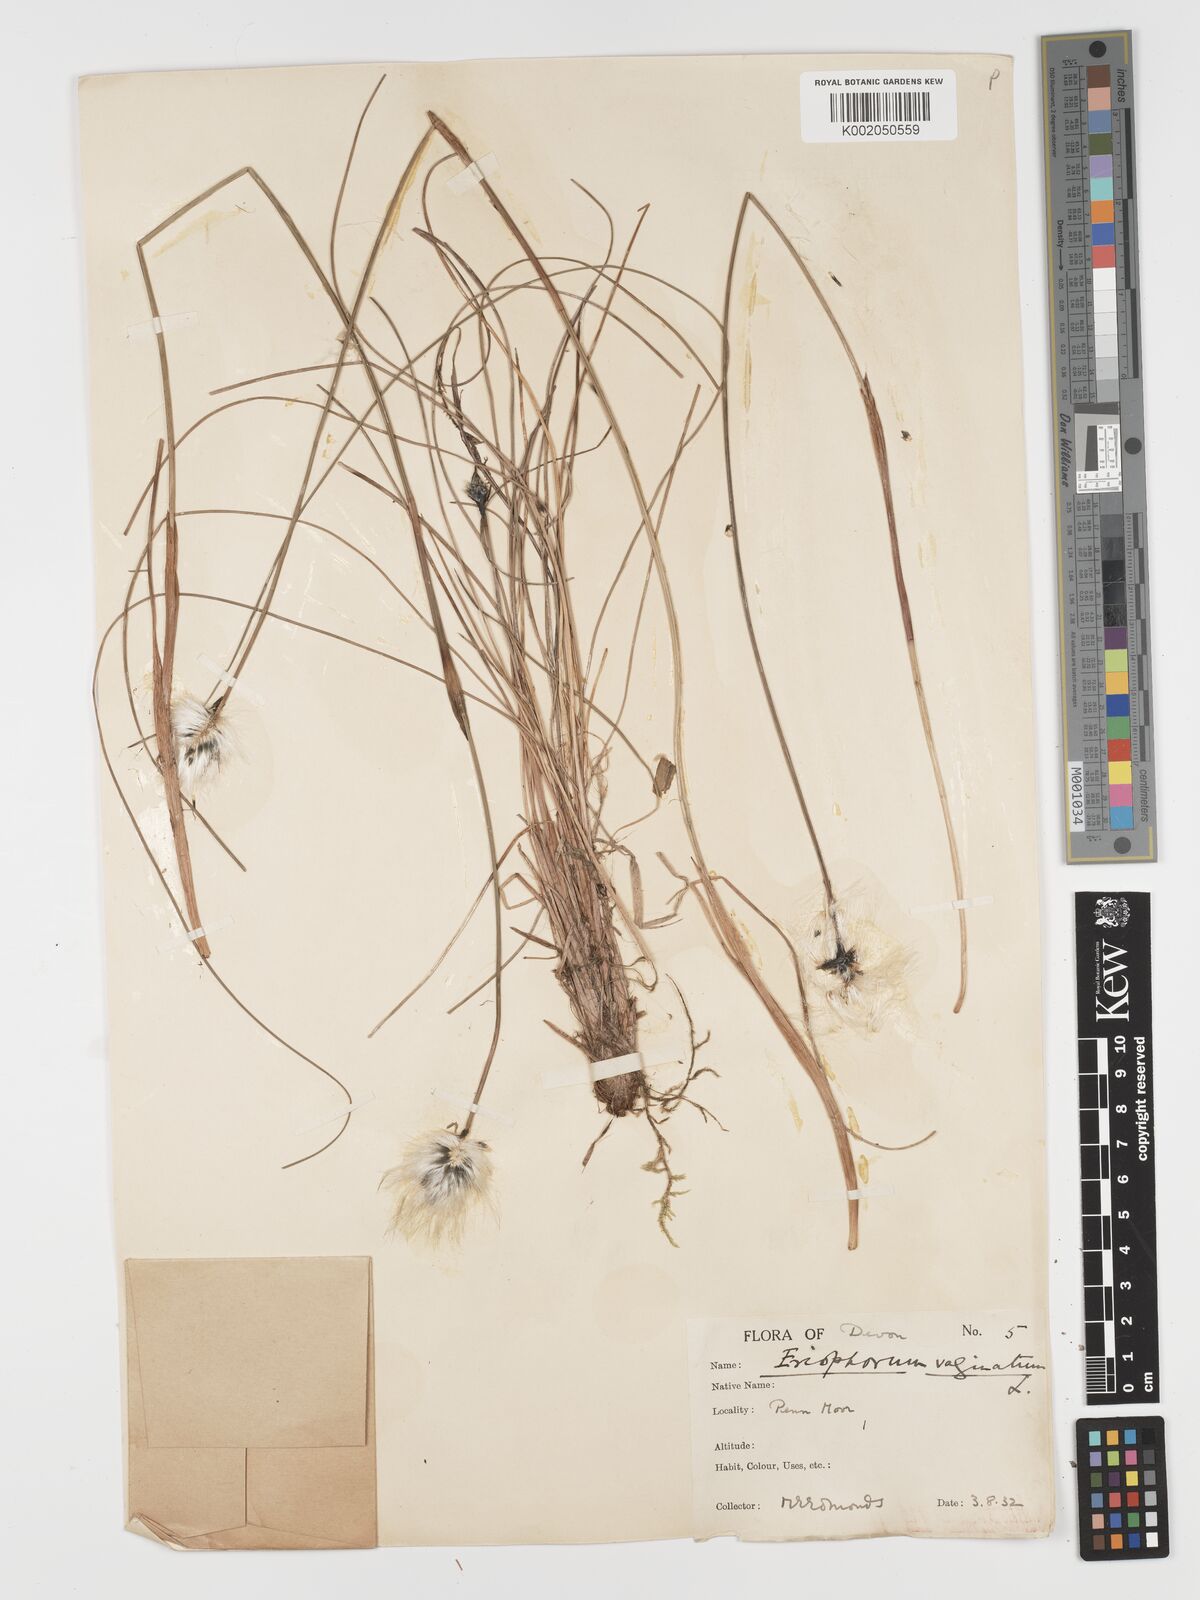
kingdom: Plantae
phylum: Tracheophyta
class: Liliopsida
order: Poales
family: Cyperaceae
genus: Eriophorum
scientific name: Eriophorum vaginatum
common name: Hare's-tail cottongrass
